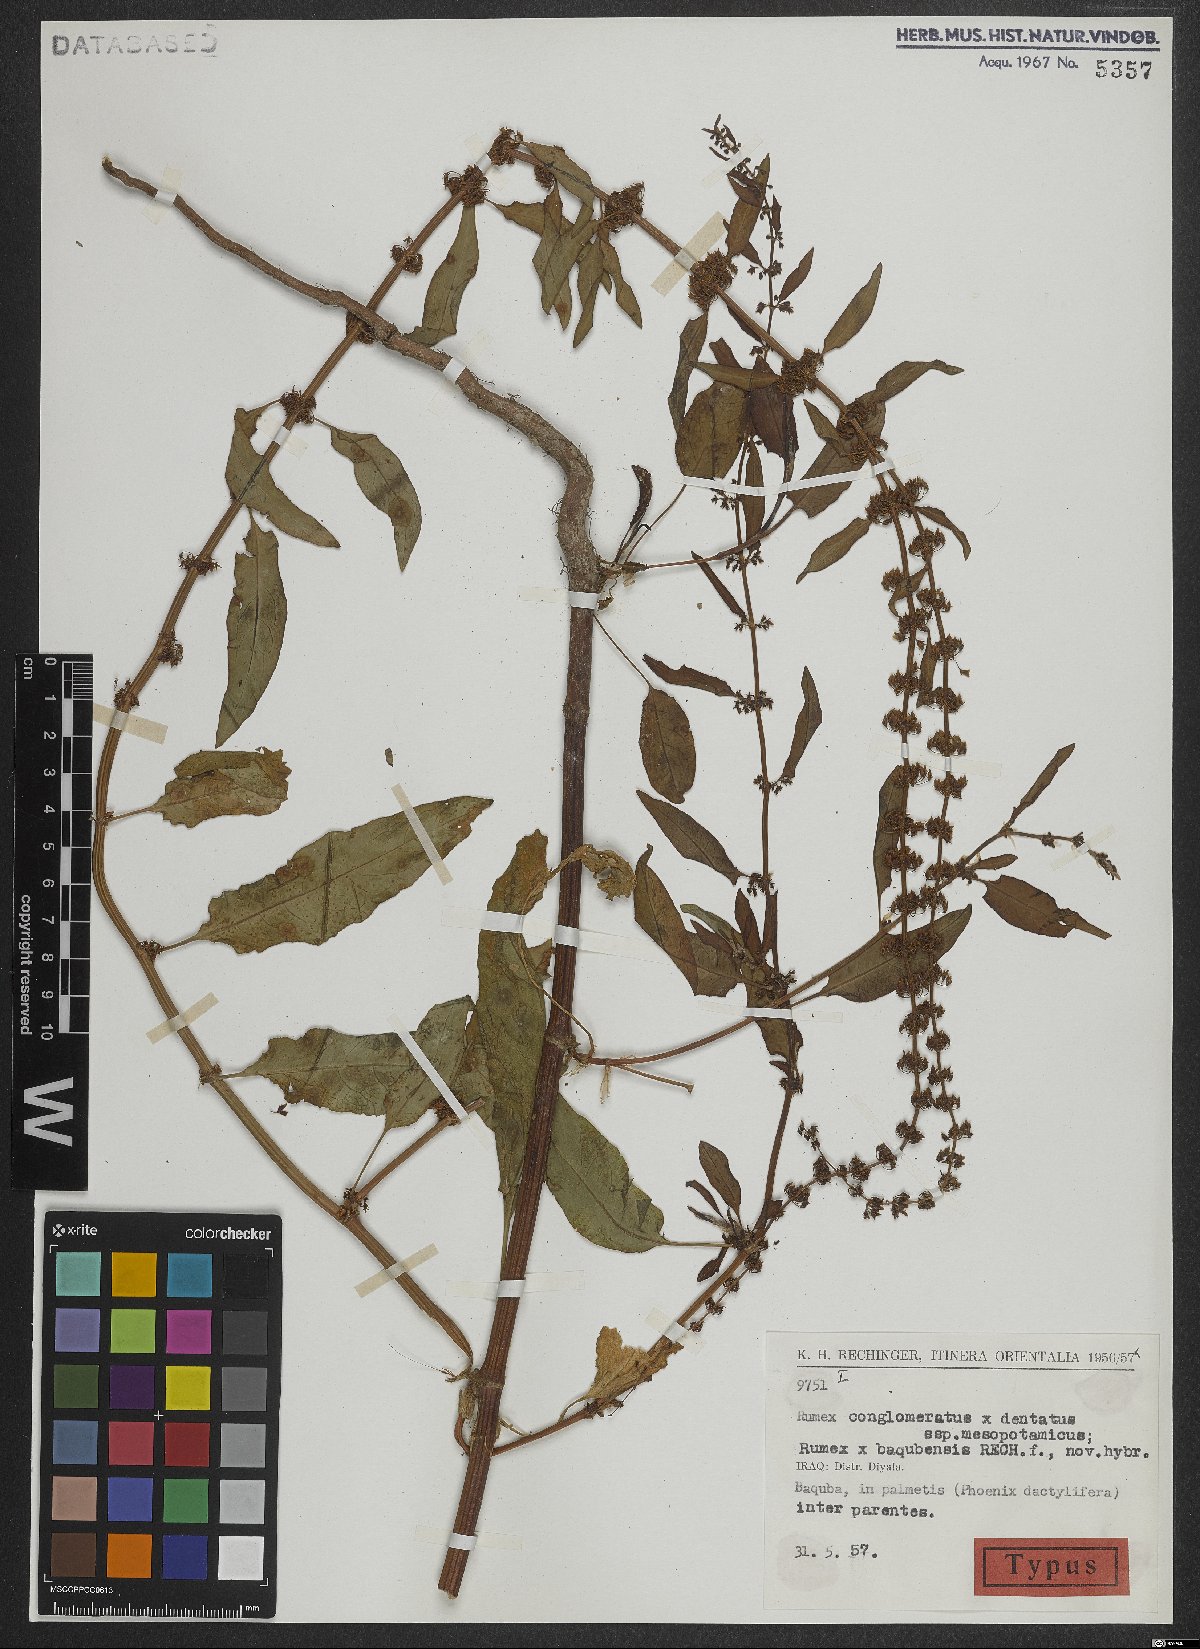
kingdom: Plantae
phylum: Tracheophyta
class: Magnoliopsida
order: Caryophyllales
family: Polygonaceae
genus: Rumex
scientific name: Rumex baqubensis
